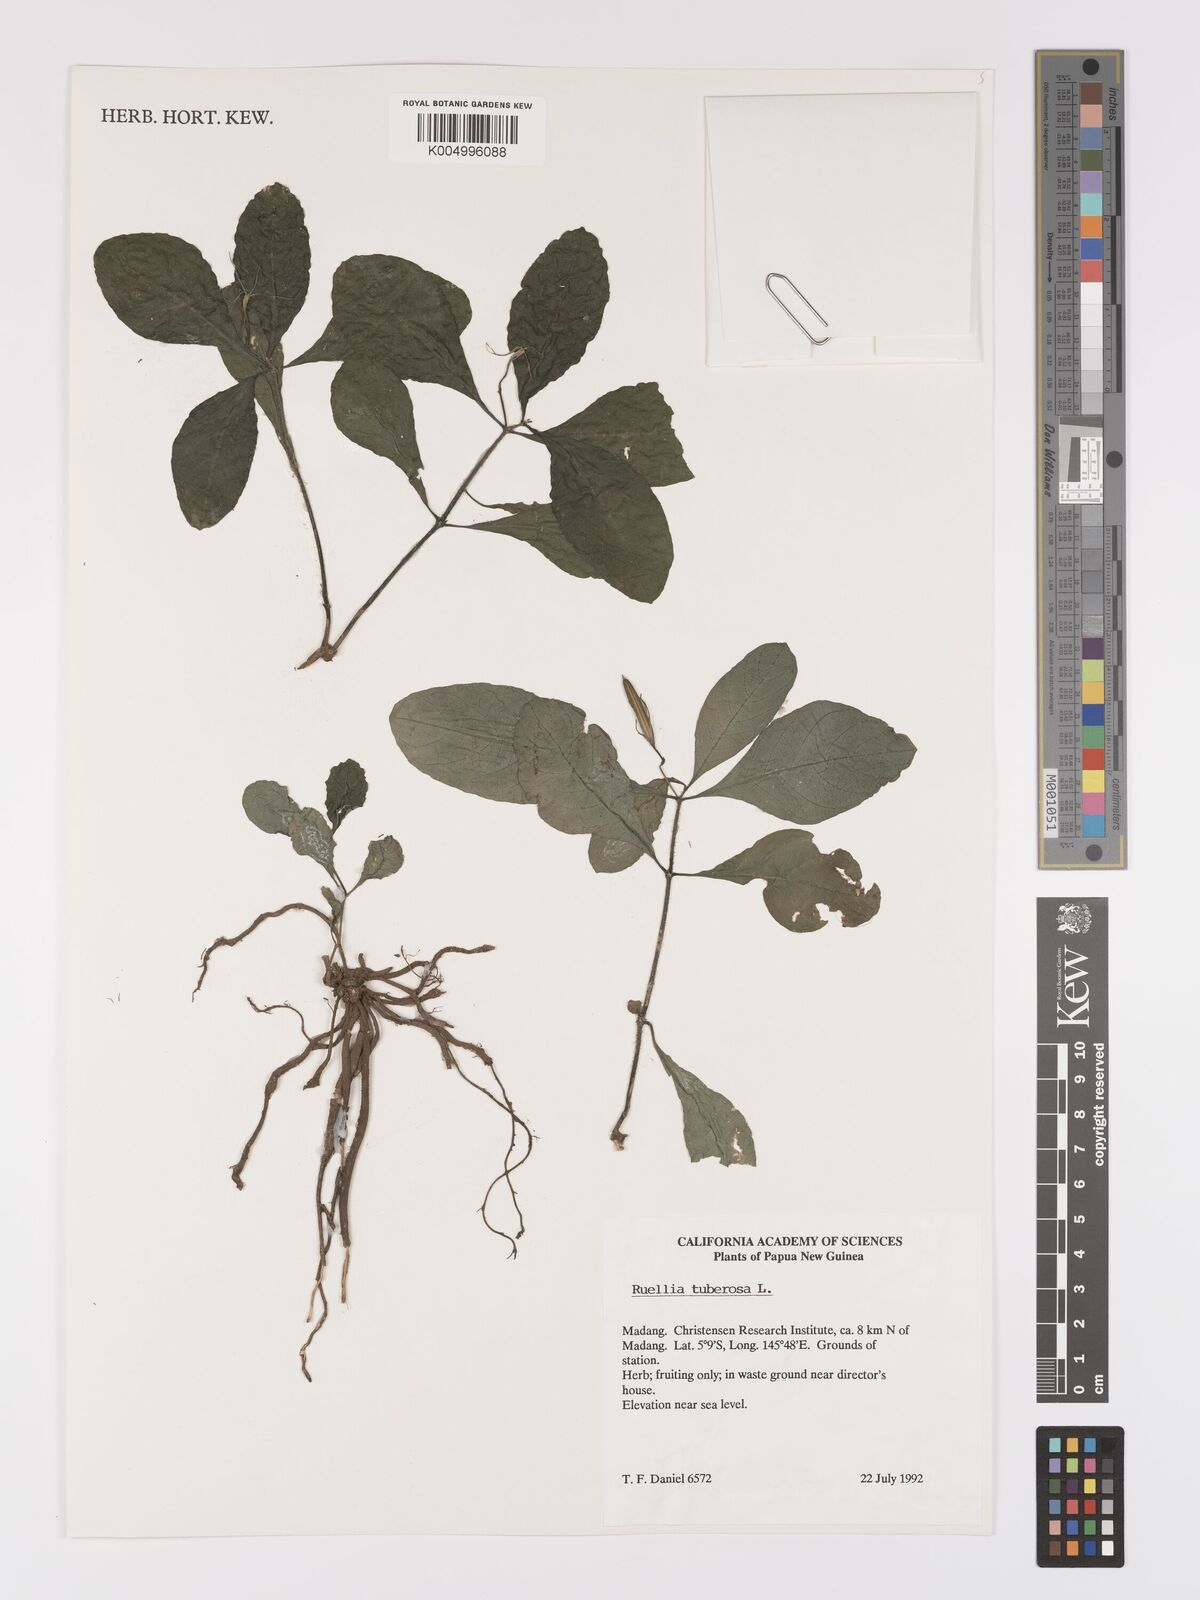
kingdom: Plantae
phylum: Tracheophyta
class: Magnoliopsida
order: Lamiales
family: Acanthaceae
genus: Ruellia
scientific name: Ruellia tuberosa
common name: Devil's bit
